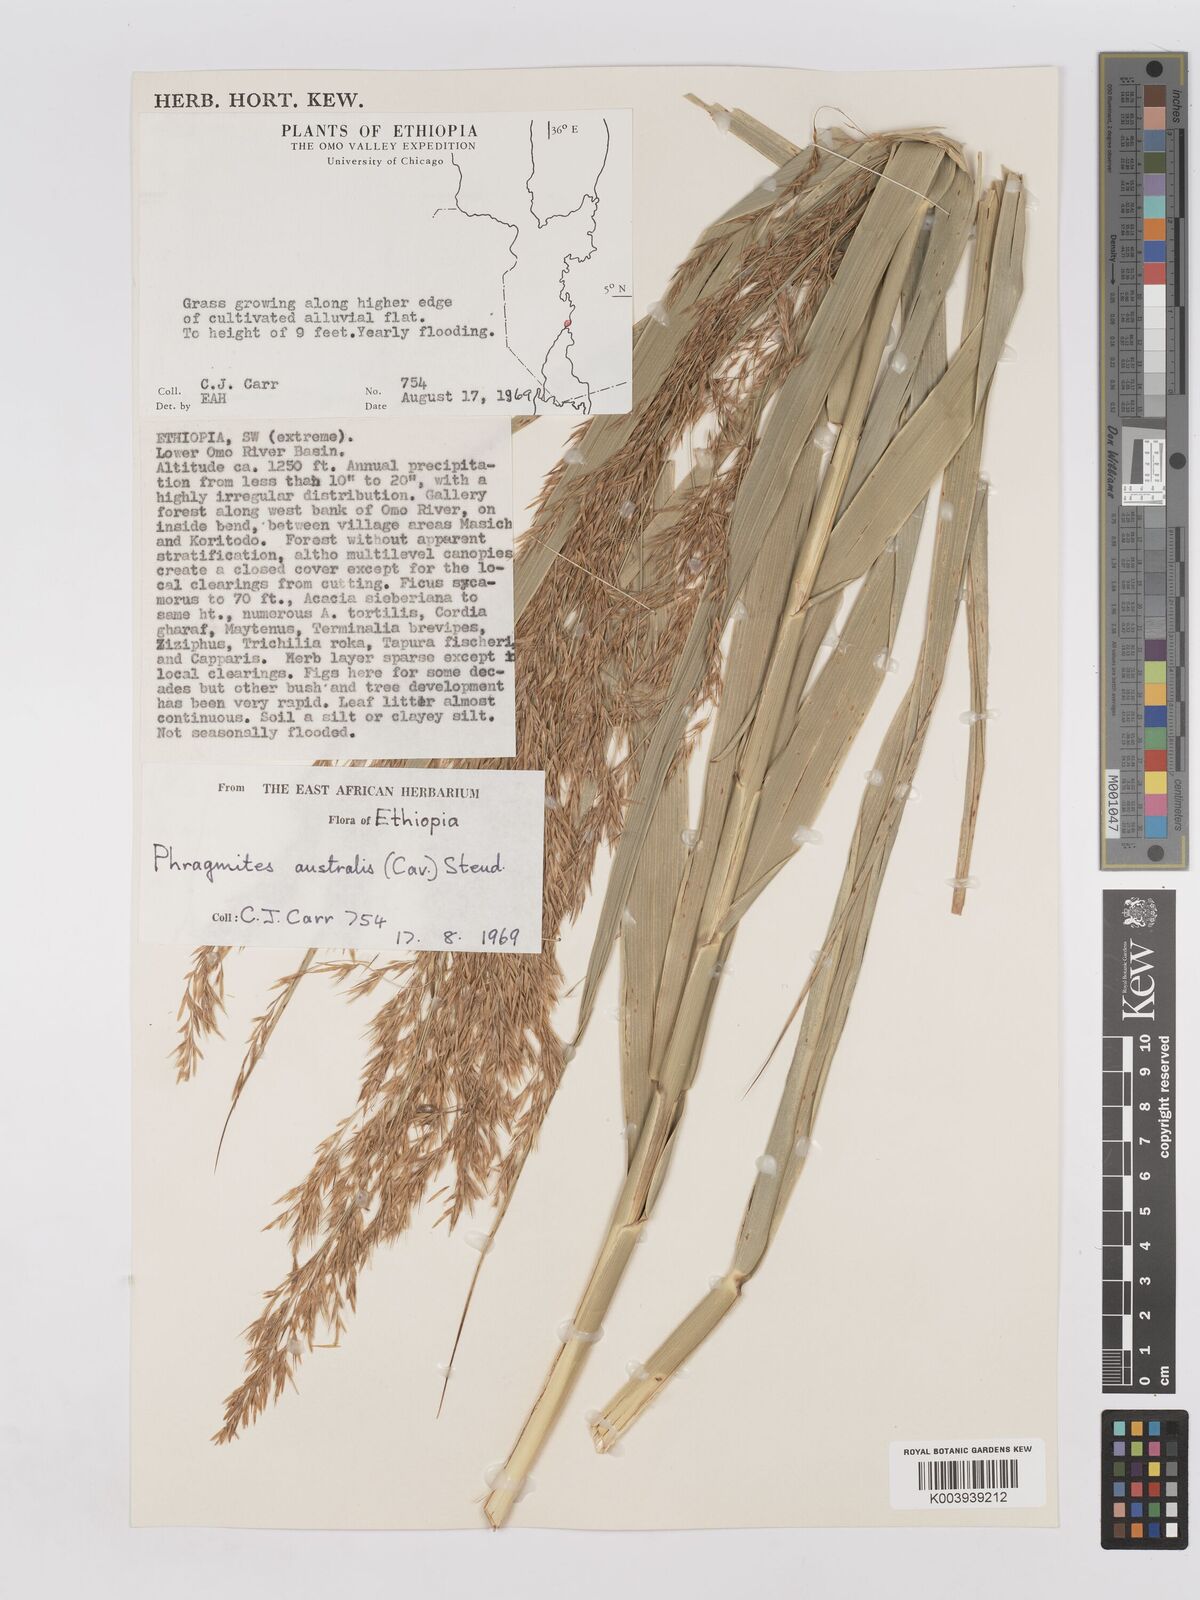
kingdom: Plantae
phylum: Tracheophyta
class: Liliopsida
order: Poales
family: Poaceae
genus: Phragmites
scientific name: Phragmites australis
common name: Common reed
